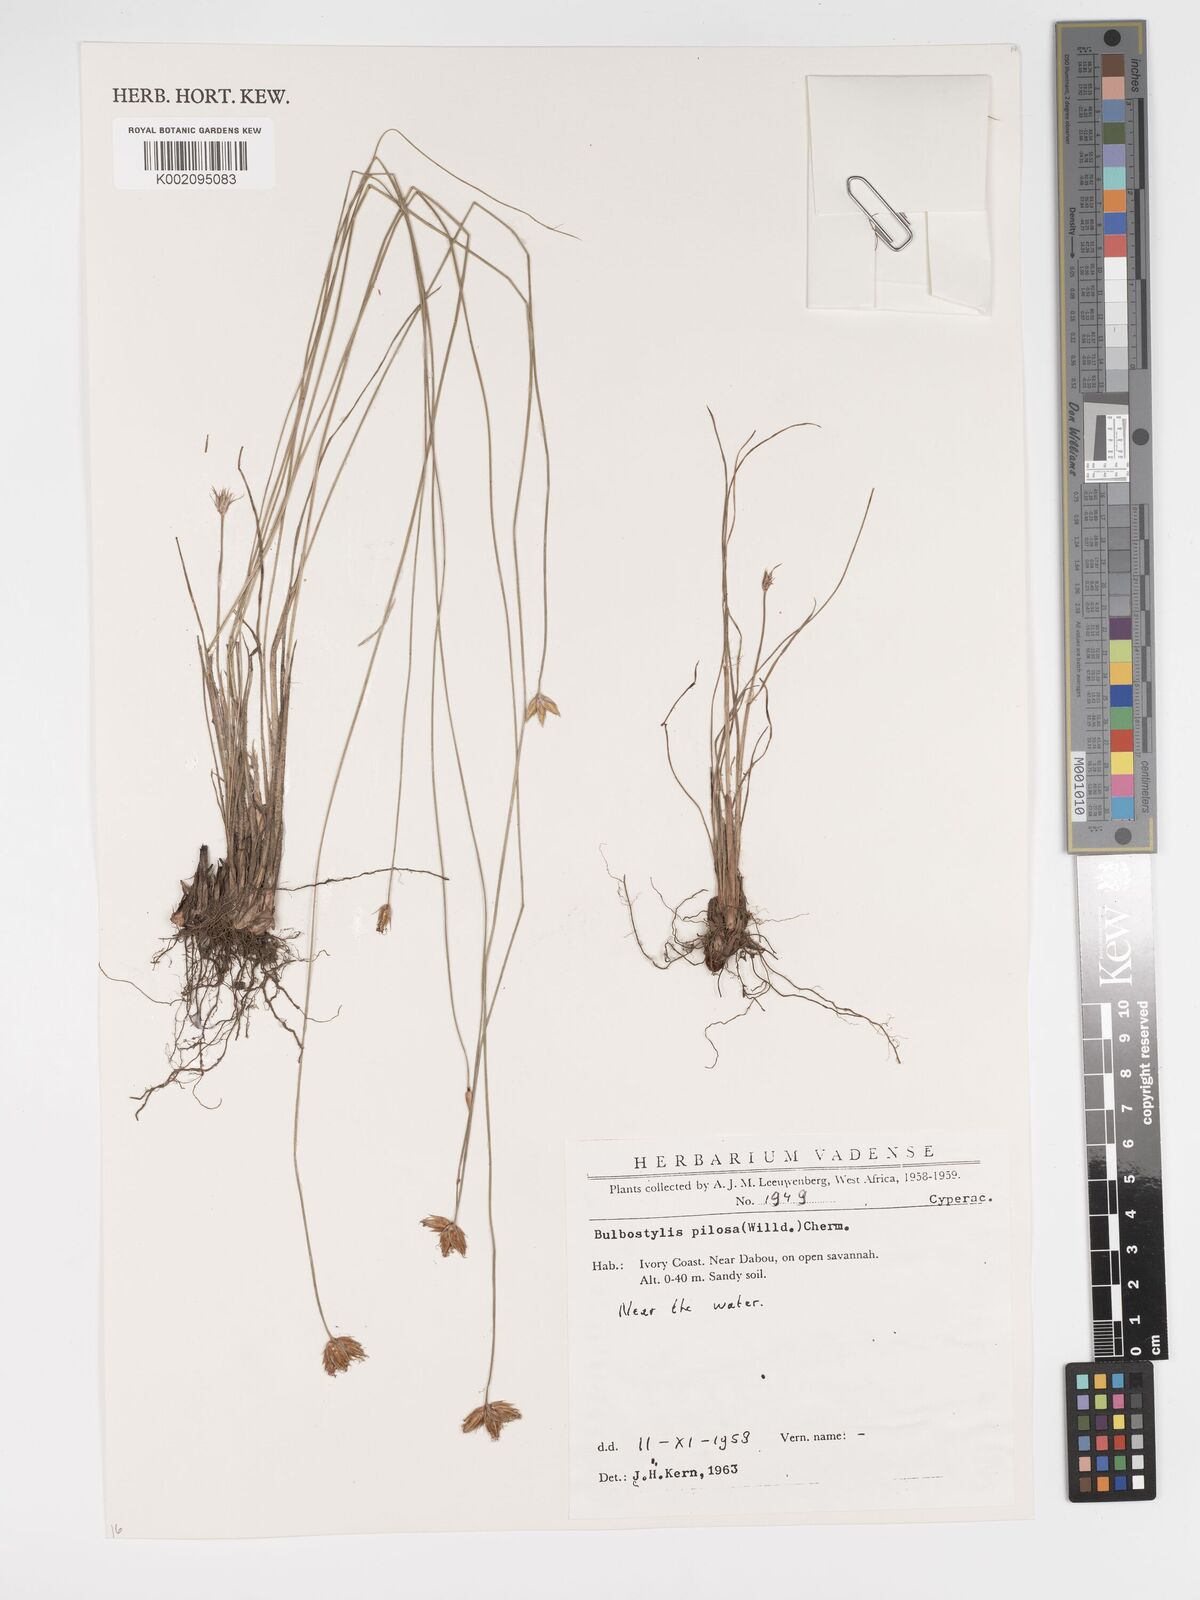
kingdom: Plantae
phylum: Tracheophyta
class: Liliopsida
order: Poales
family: Cyperaceae
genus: Bulbostylis
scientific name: Bulbostylis pilosa
